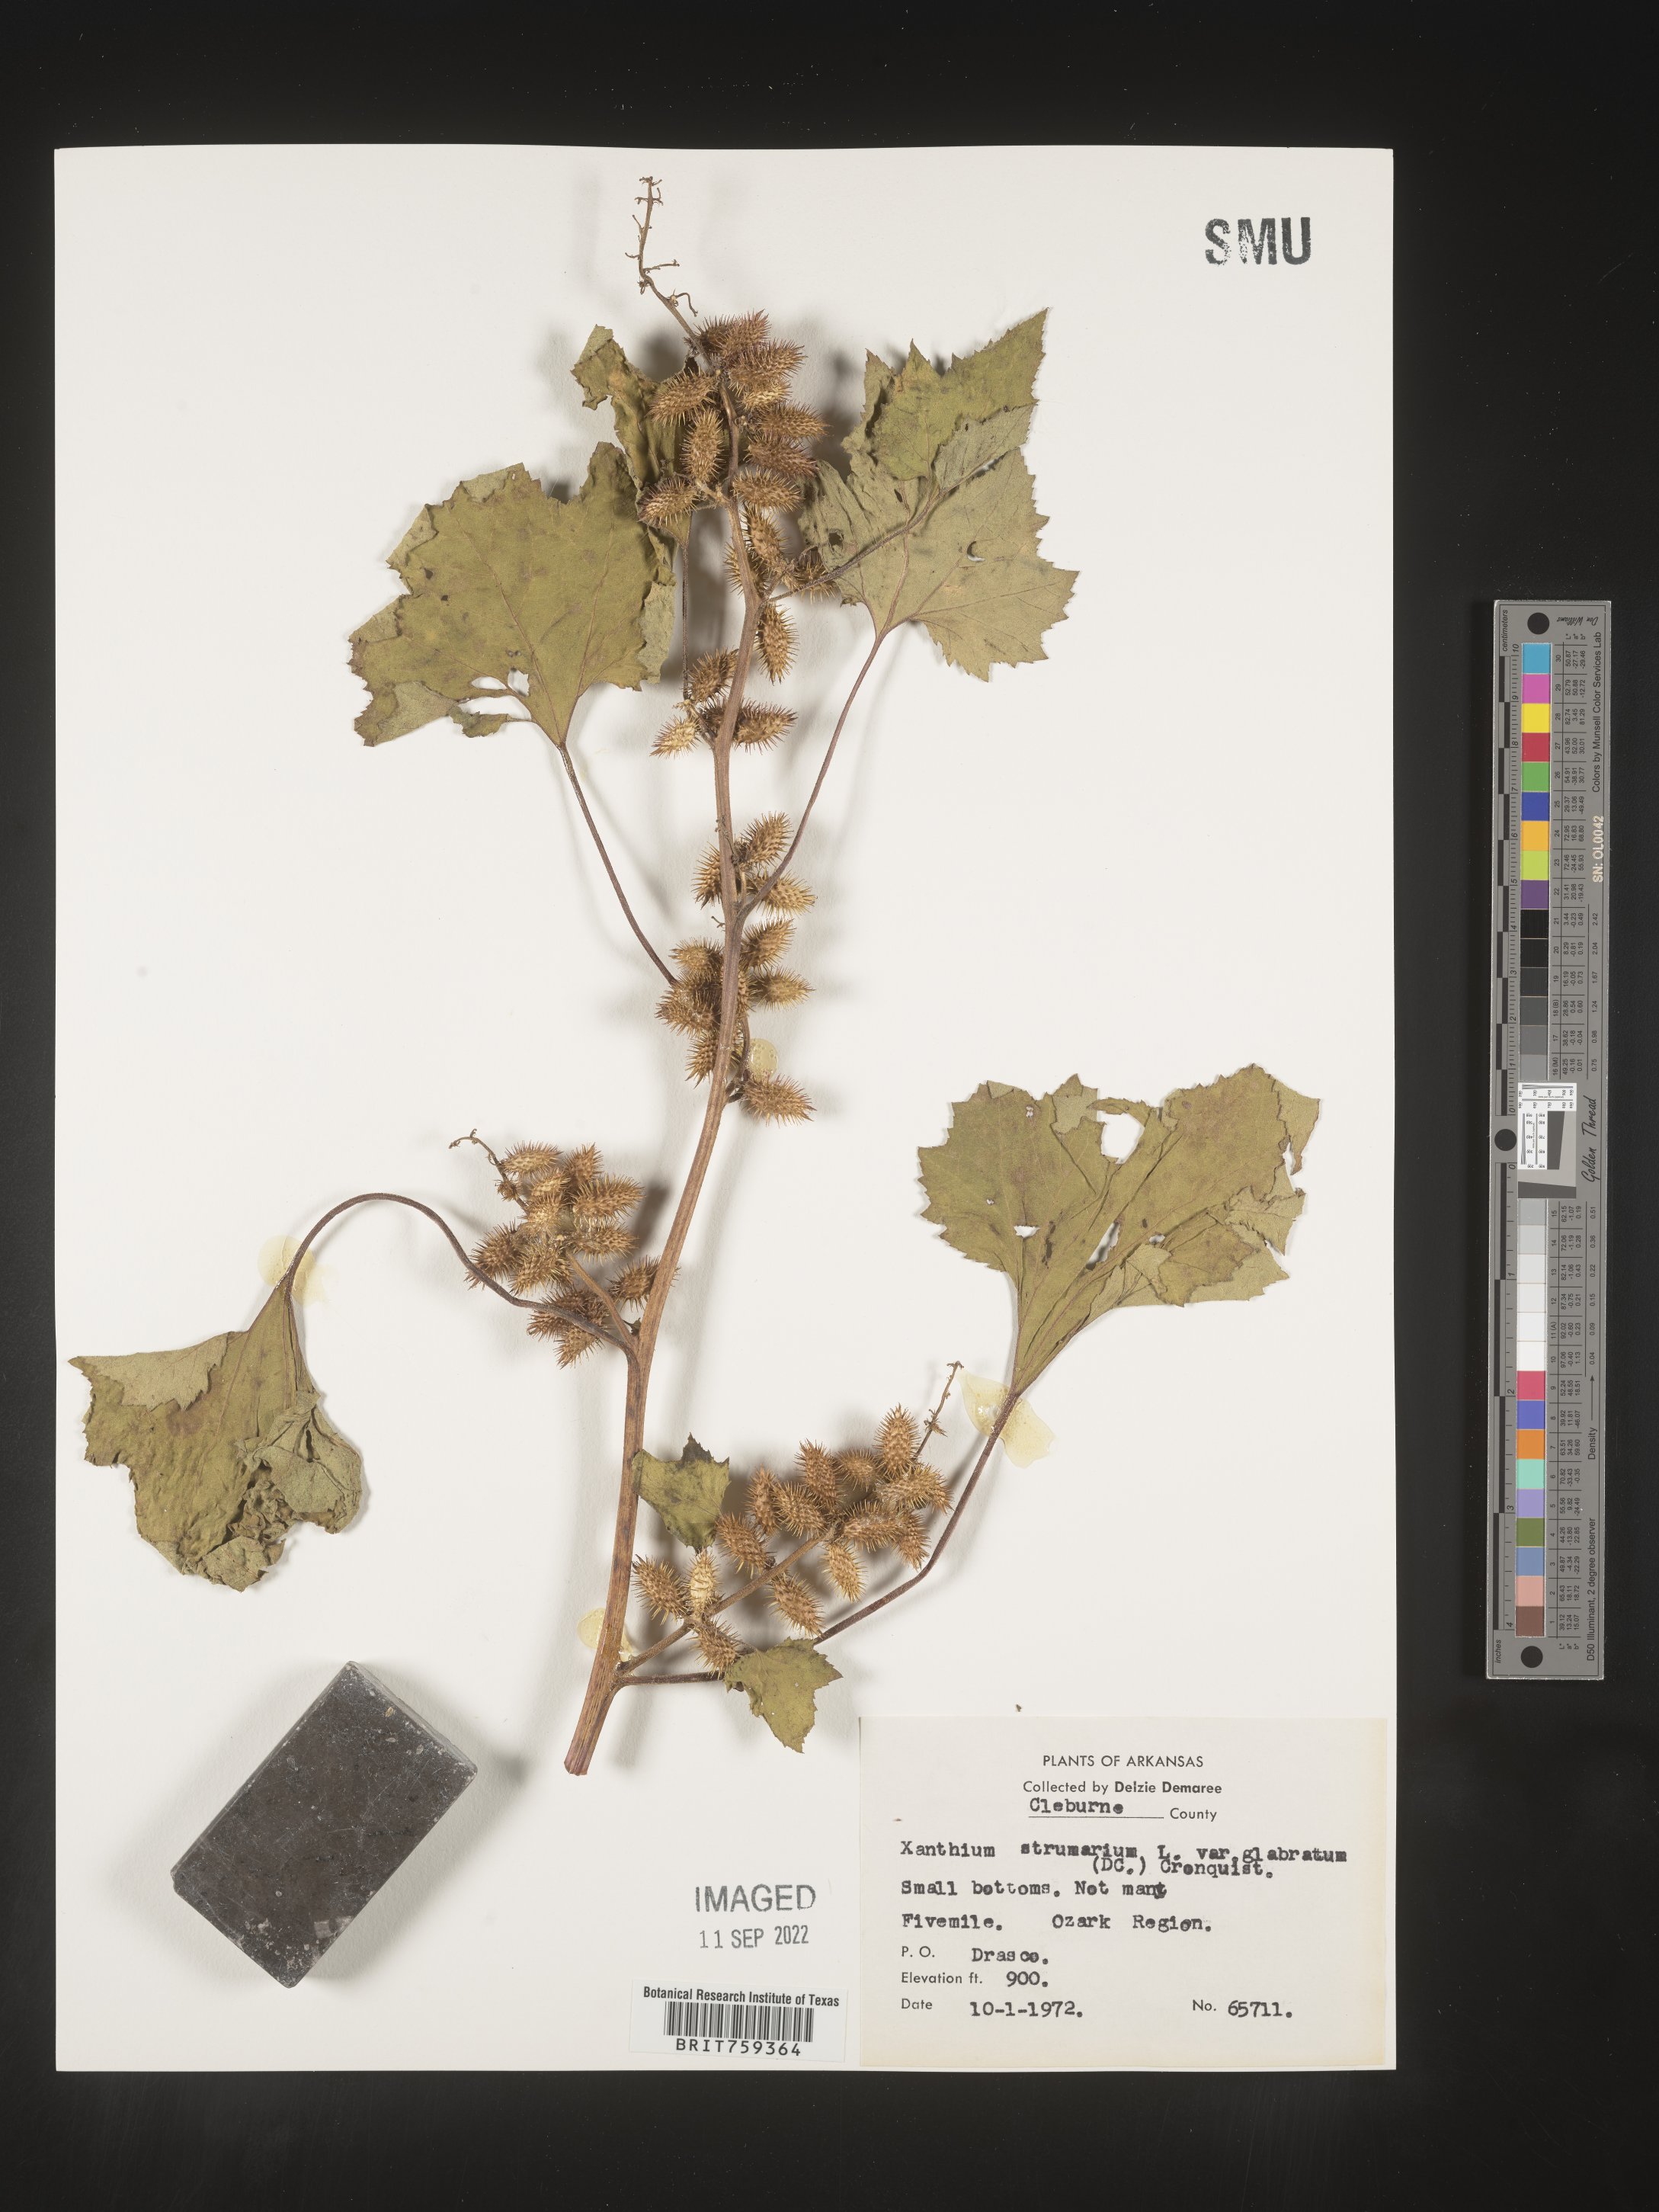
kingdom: Plantae
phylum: Tracheophyta
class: Magnoliopsida
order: Asterales
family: Asteraceae
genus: Xanthium
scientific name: Xanthium occidentale
